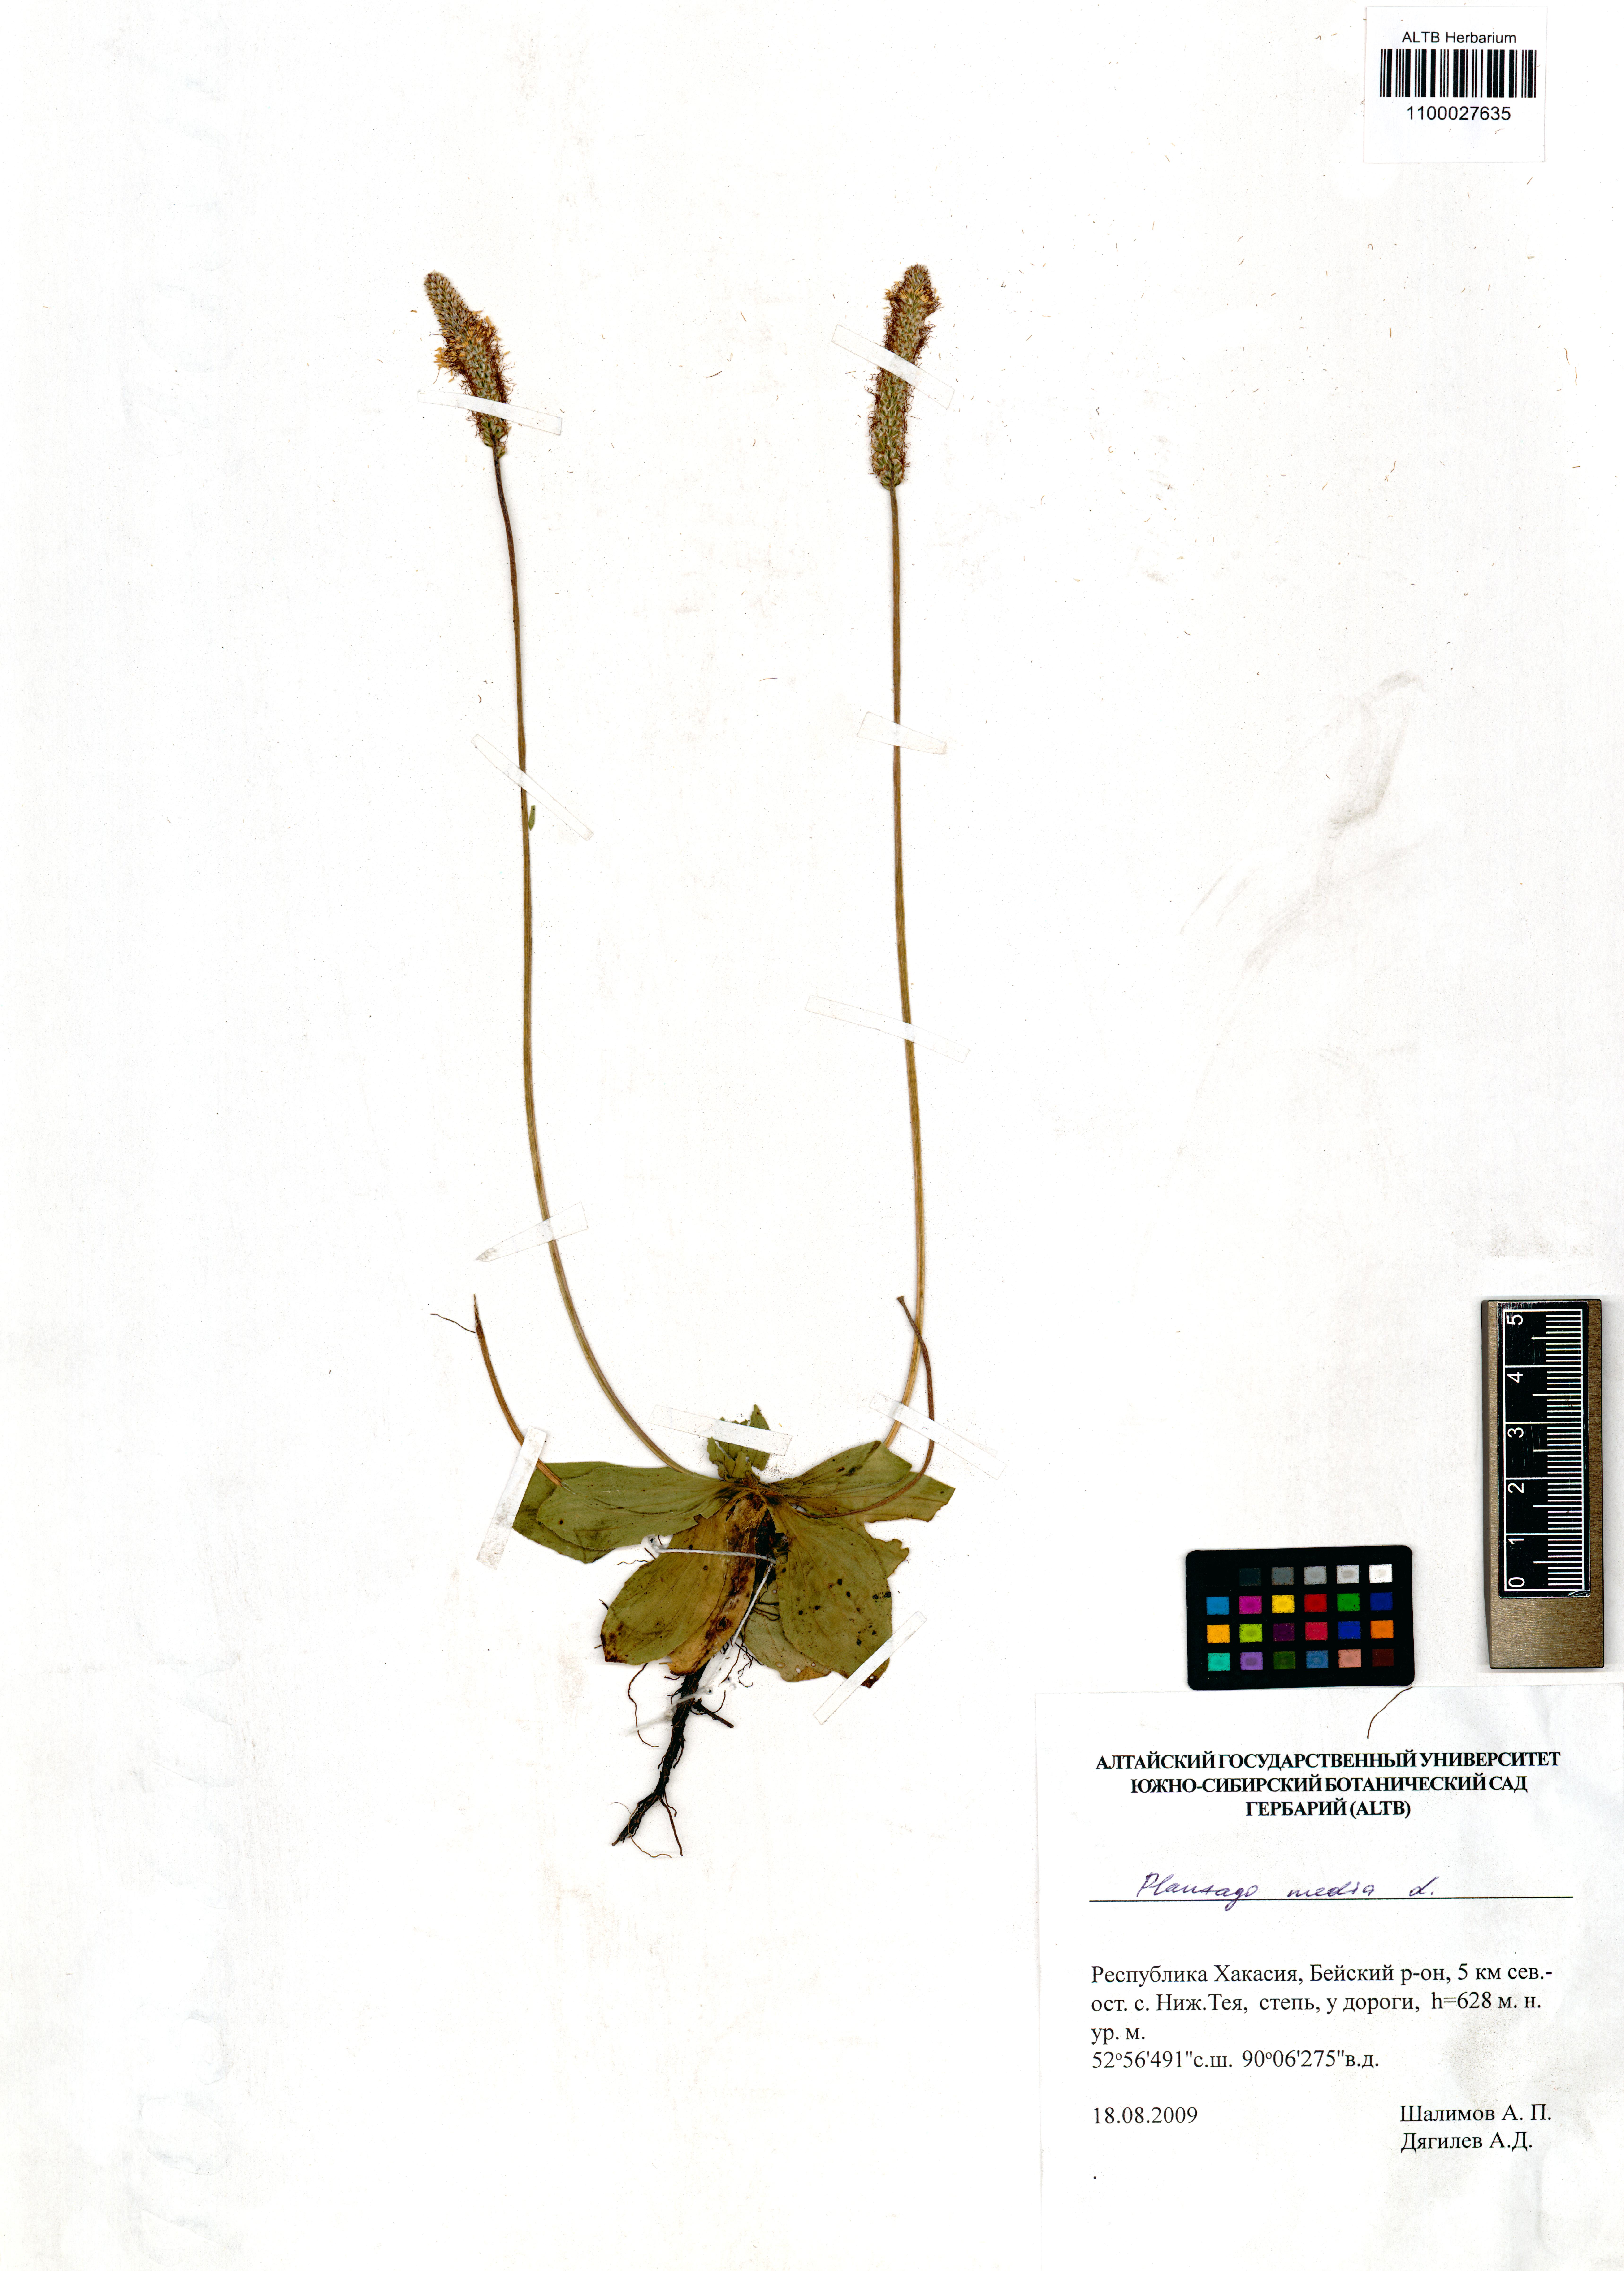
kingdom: Plantae
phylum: Tracheophyta
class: Magnoliopsida
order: Lamiales
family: Plantaginaceae
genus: Plantago
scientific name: Plantago media
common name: Hoary plantain
